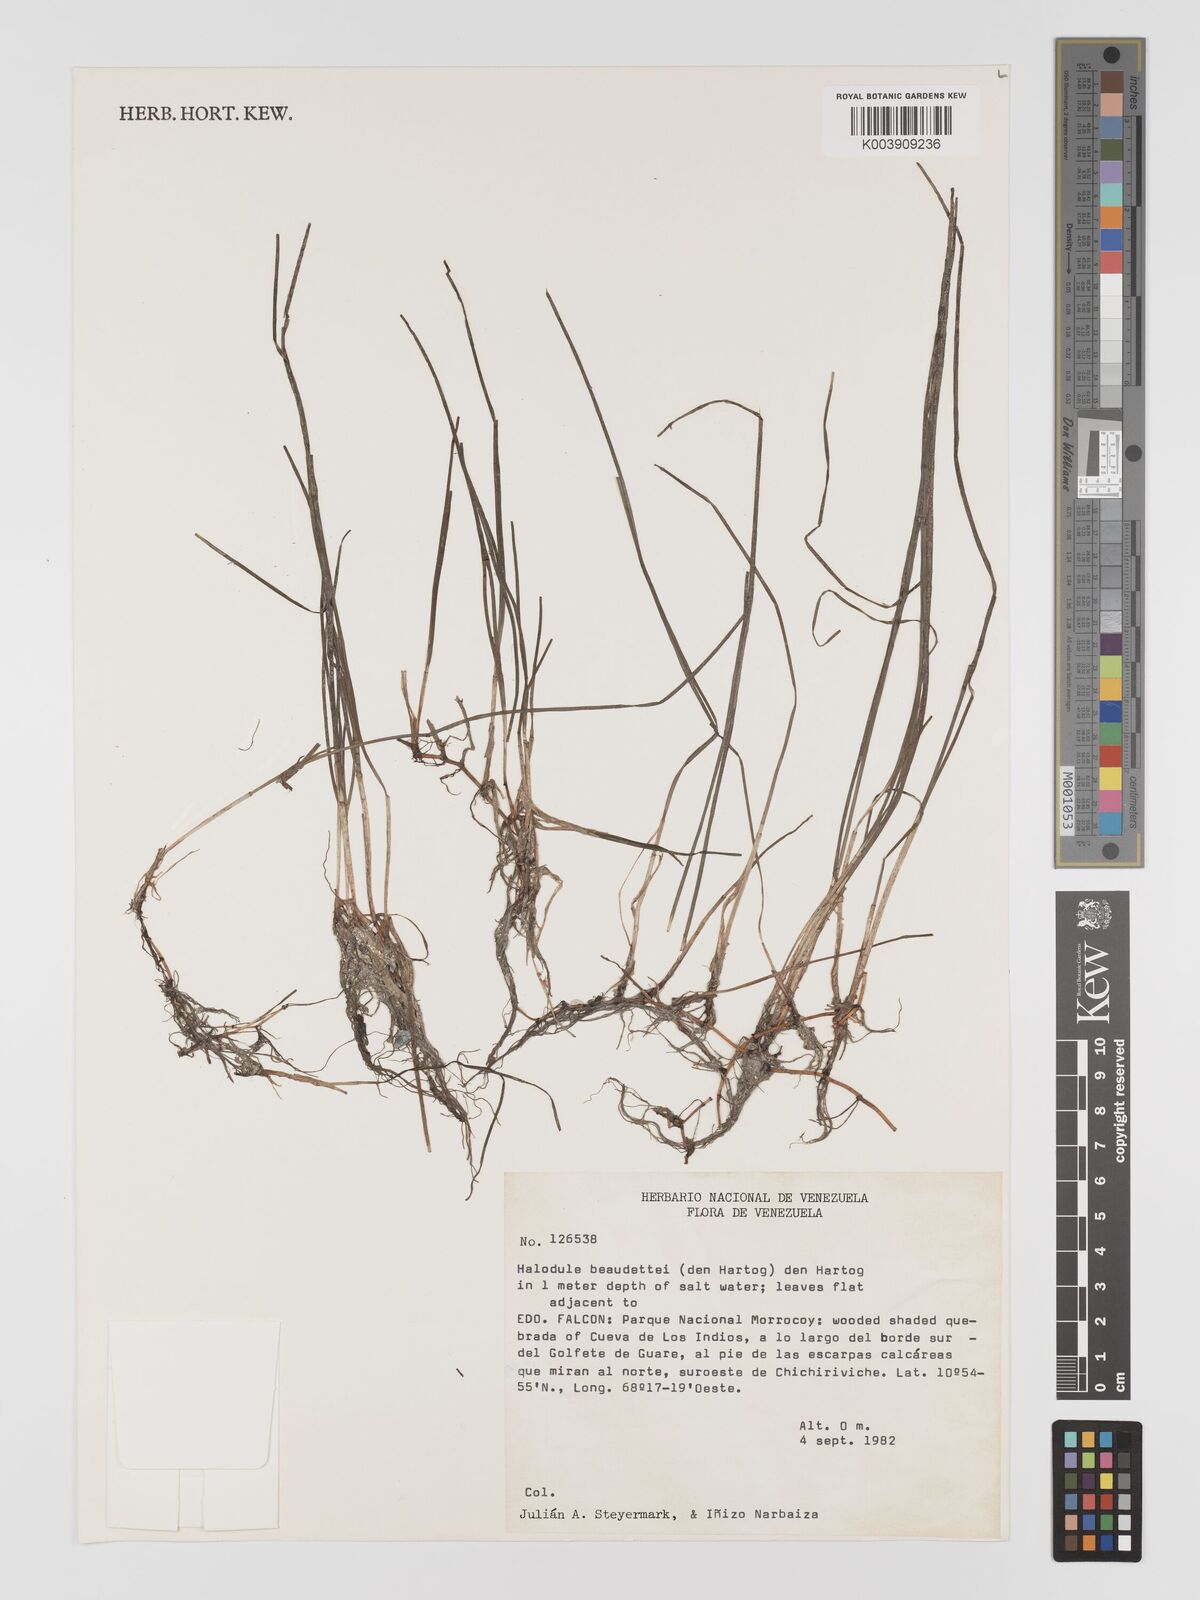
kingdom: Plantae
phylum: Tracheophyta
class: Liliopsida
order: Alismatales
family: Cymodoceaceae
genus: Halodule
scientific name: Halodule wrightii
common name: Shoalgrass
